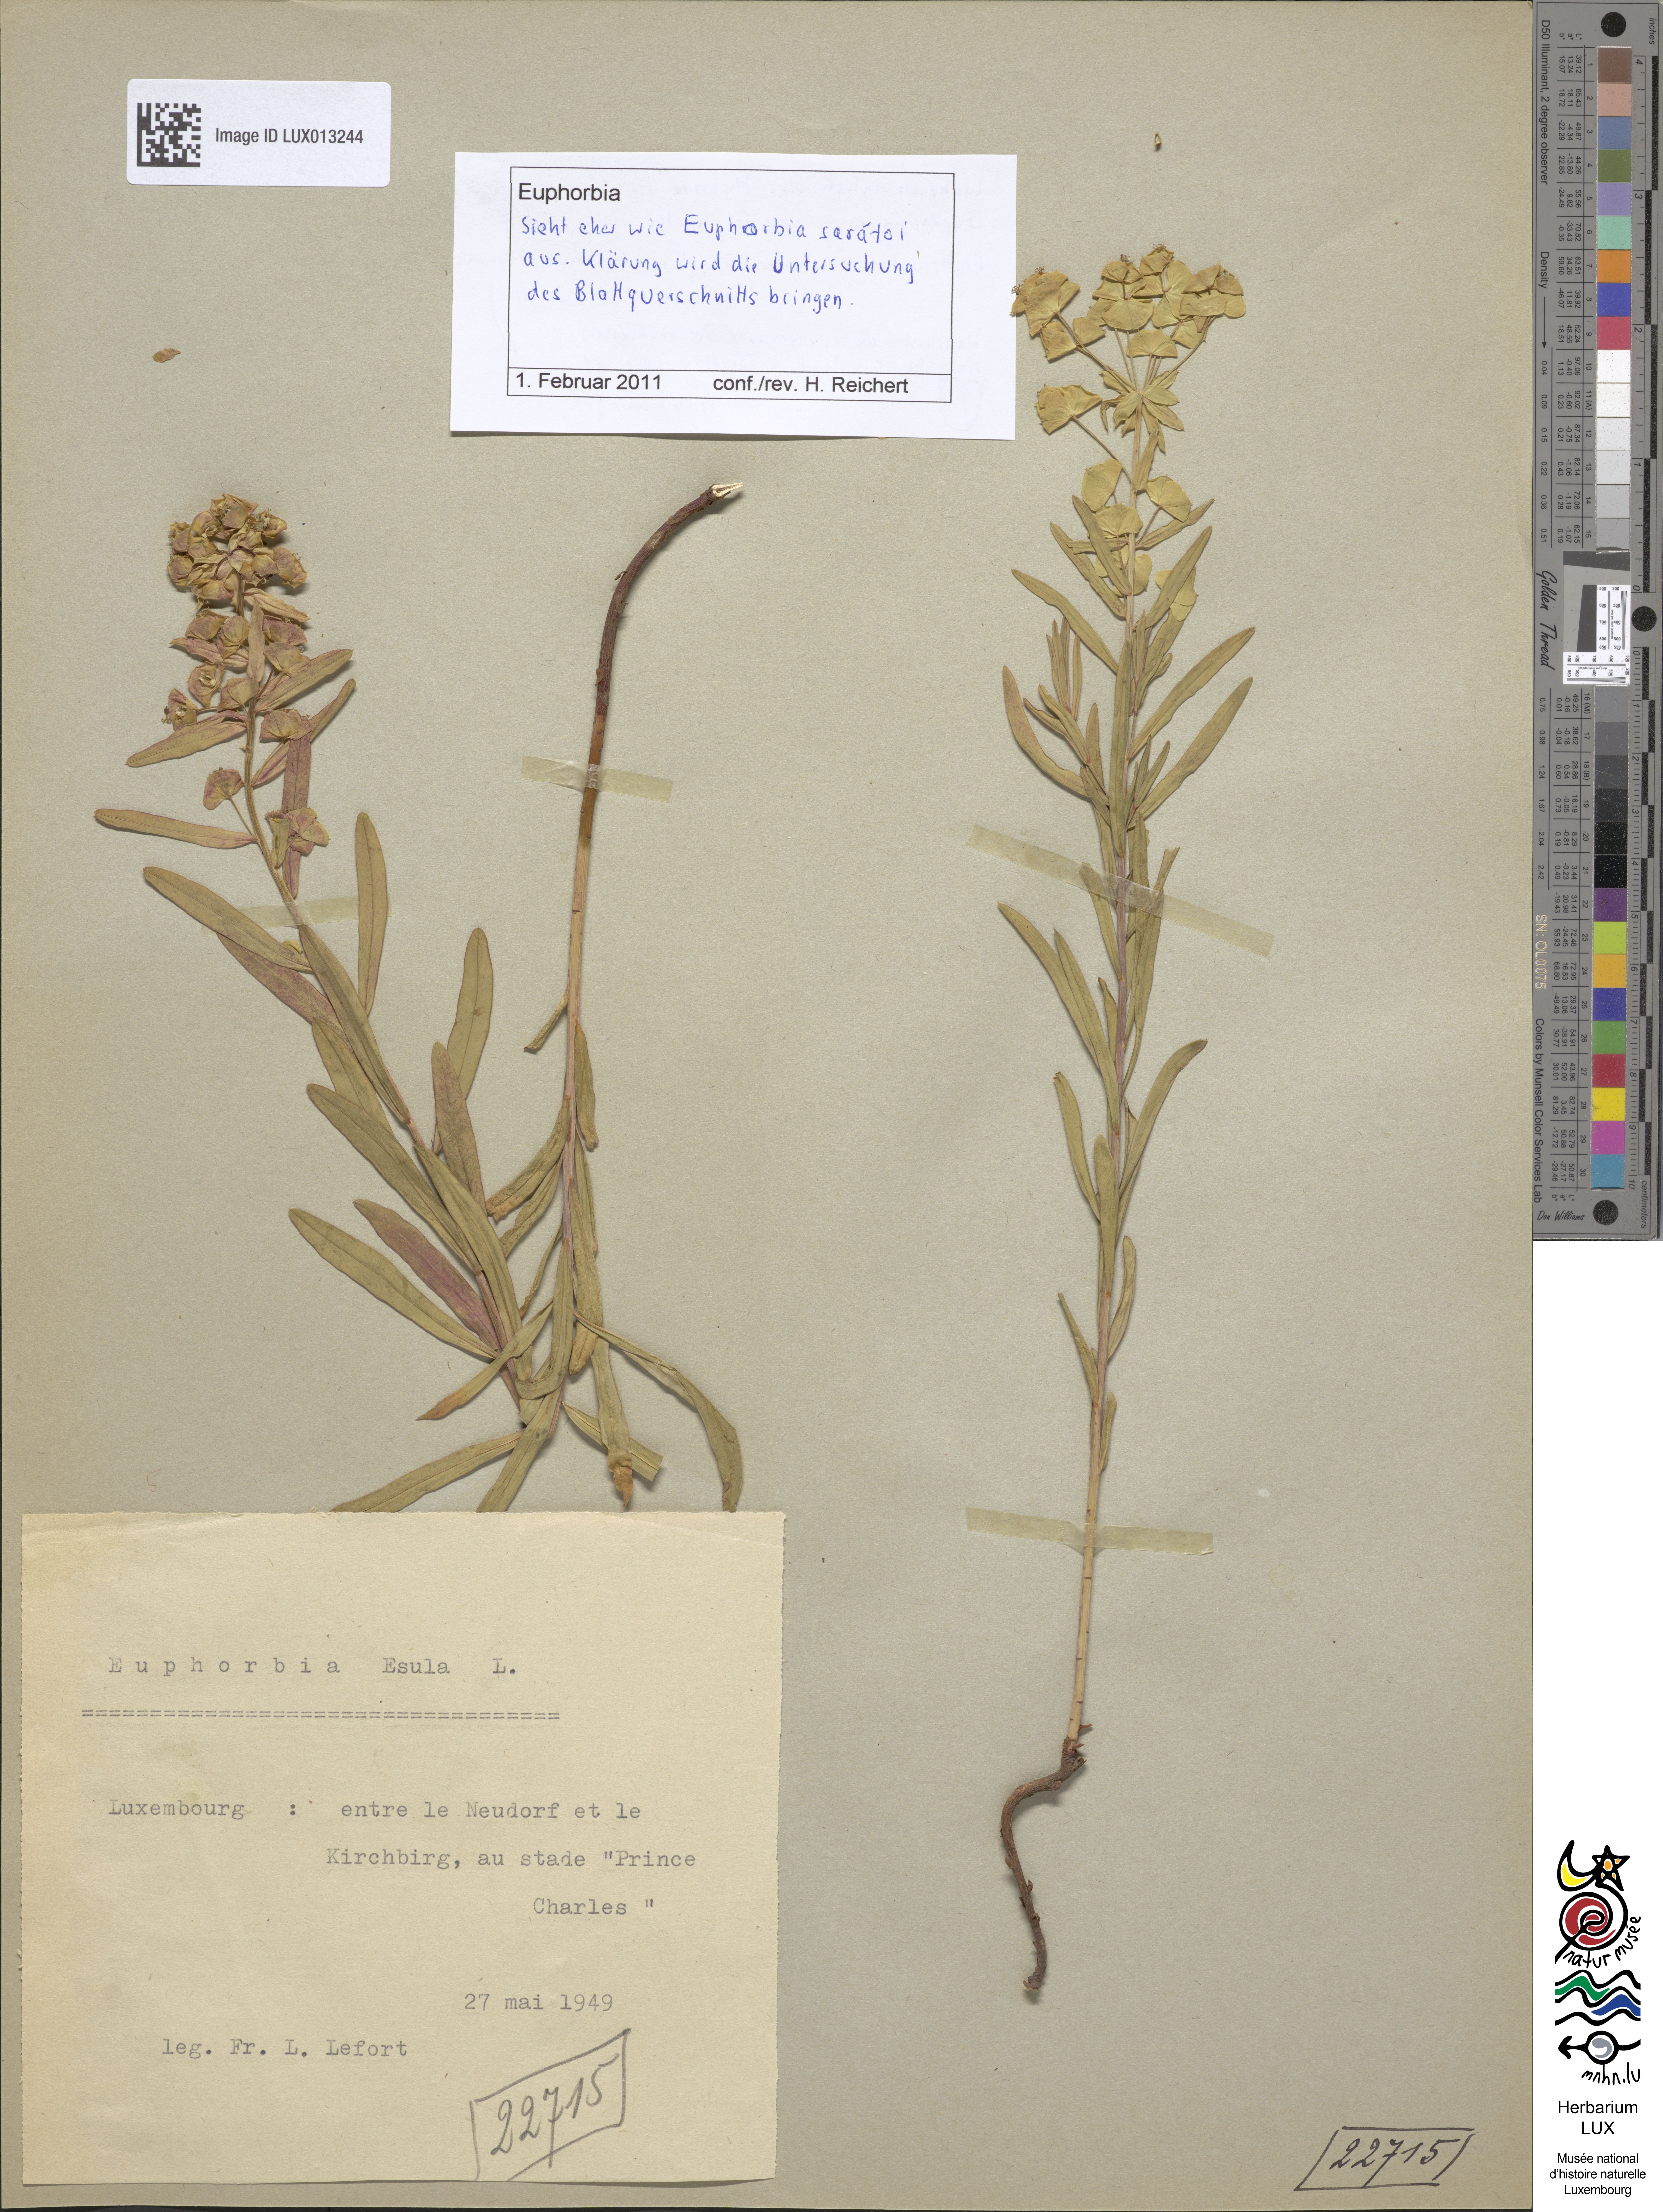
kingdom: Plantae
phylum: Tracheophyta
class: Magnoliopsida
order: Malpighiales
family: Euphorbiaceae
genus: Euphorbia
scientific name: Euphorbia saratoi
